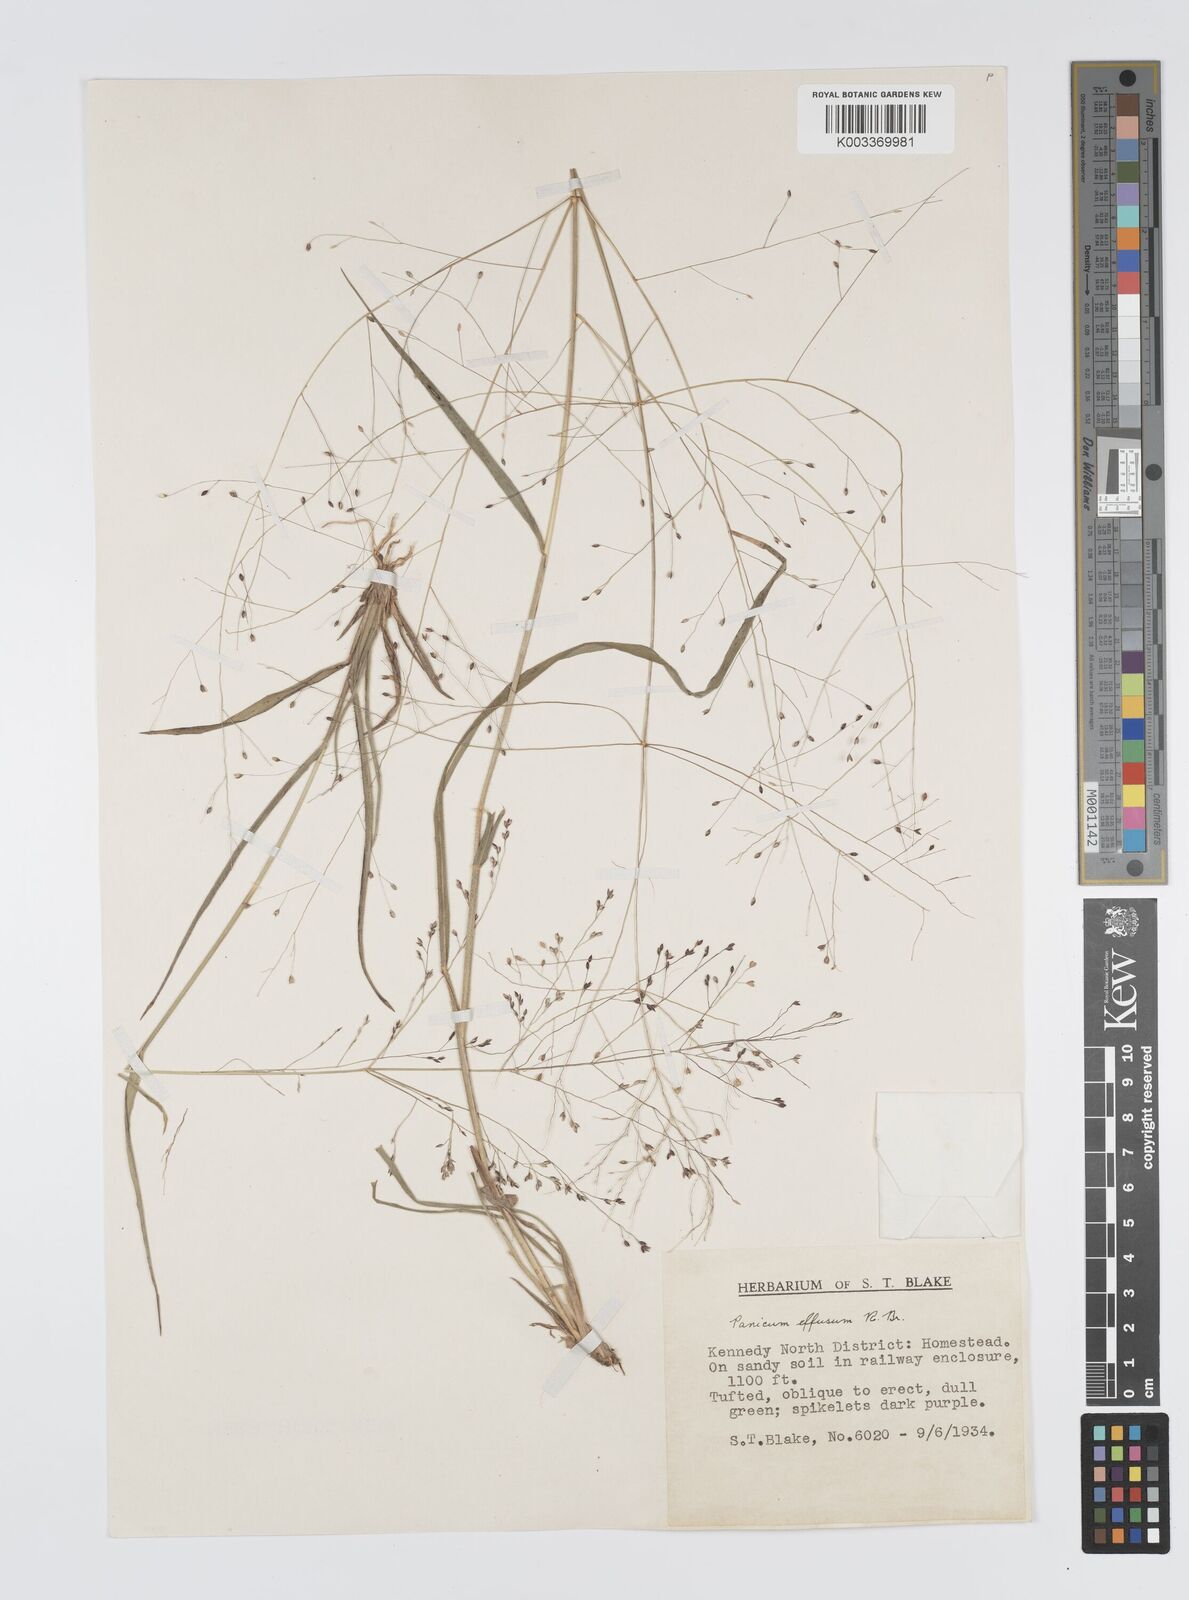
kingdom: Plantae
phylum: Tracheophyta
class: Liliopsida
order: Poales
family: Poaceae
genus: Panicum
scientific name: Panicum effusum
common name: Hairy panic grass
